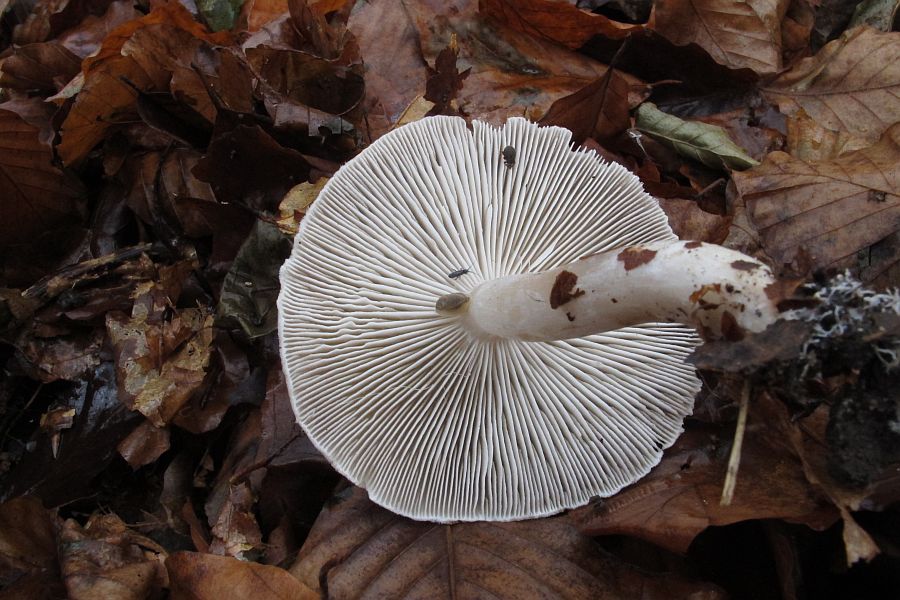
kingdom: Fungi
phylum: Basidiomycota
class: Agaricomycetes
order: Agaricales
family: Tricholomataceae
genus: Tricholoma
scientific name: Tricholoma scalpturatum
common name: gulplettet ridderhat
